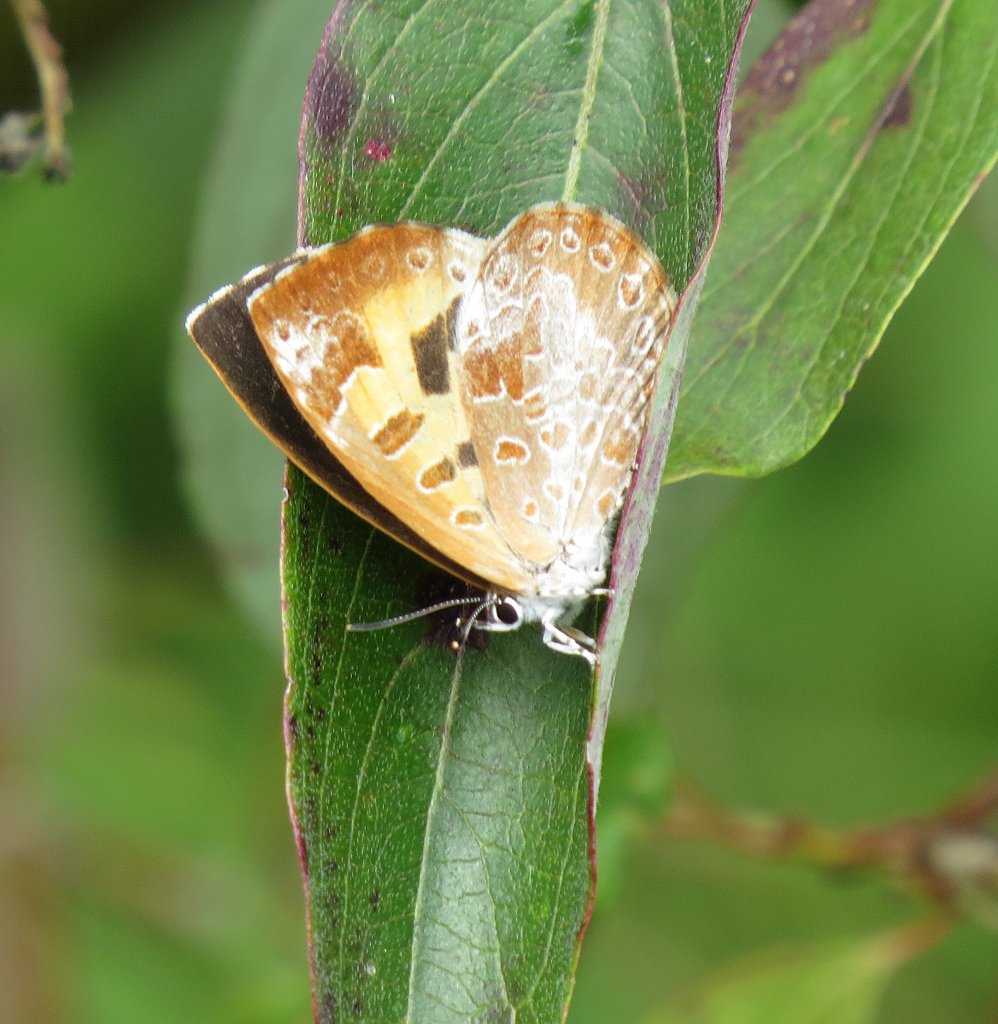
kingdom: Animalia
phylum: Arthropoda
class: Insecta
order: Lepidoptera
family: Lycaenidae
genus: Feniseca
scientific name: Feniseca tarquinius
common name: Harvester
